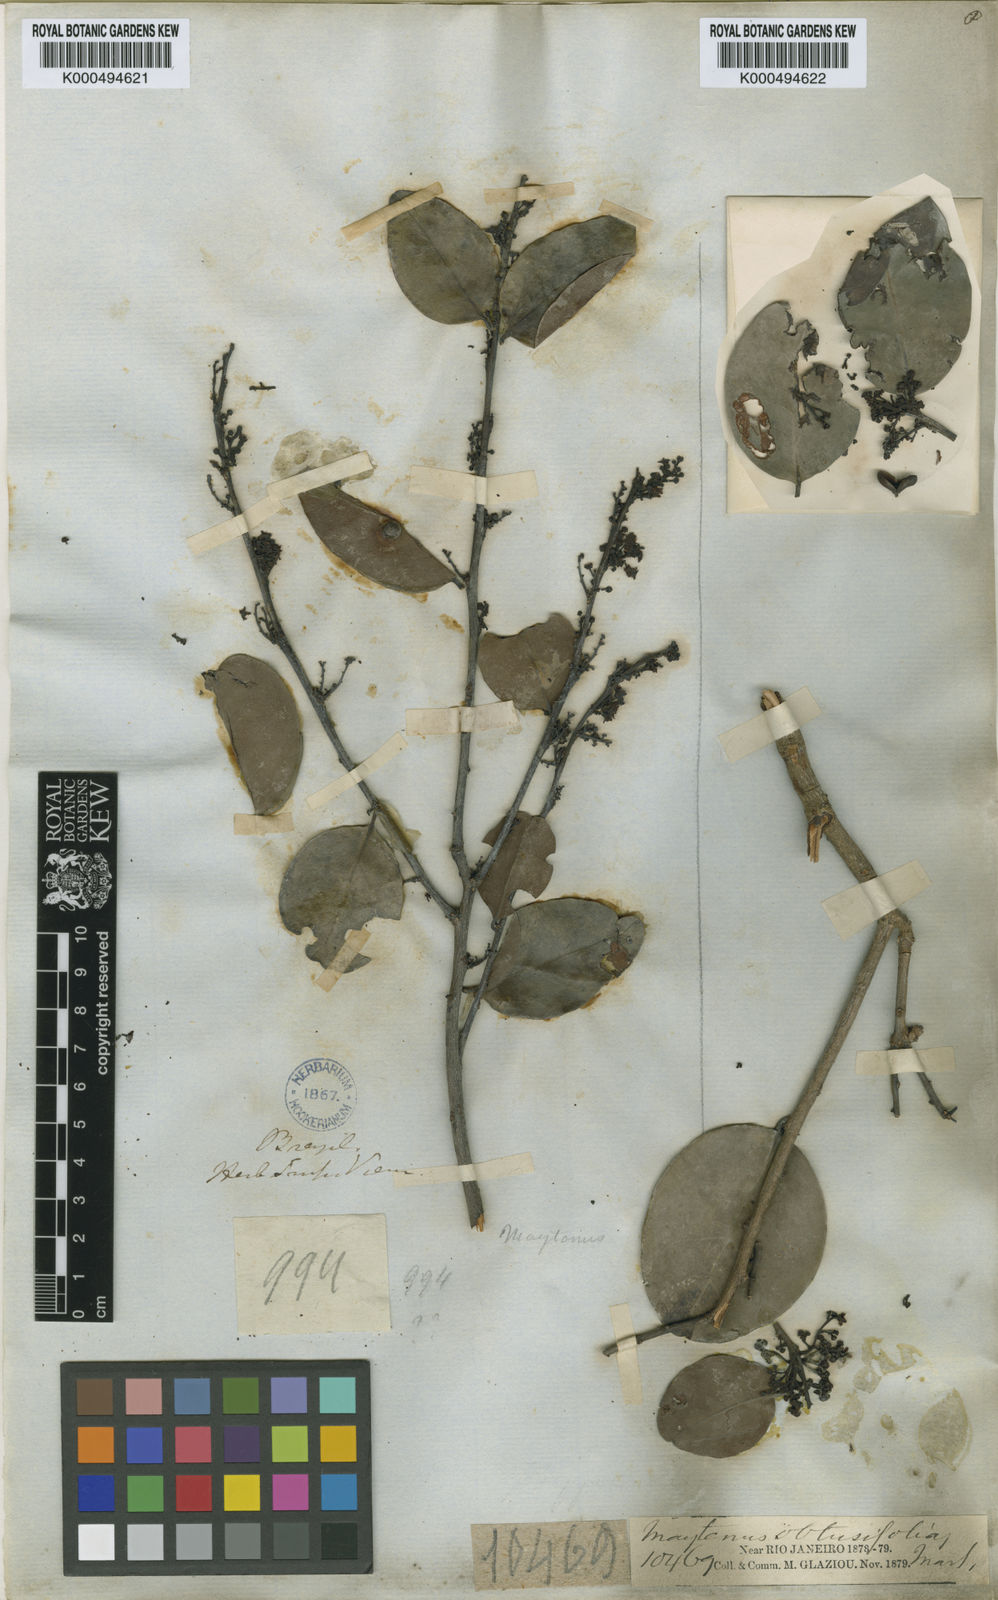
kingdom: Plantae
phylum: Tracheophyta
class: Magnoliopsida
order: Celastrales
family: Celastraceae
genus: Monteverdia
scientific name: Monteverdia obtusifolia
